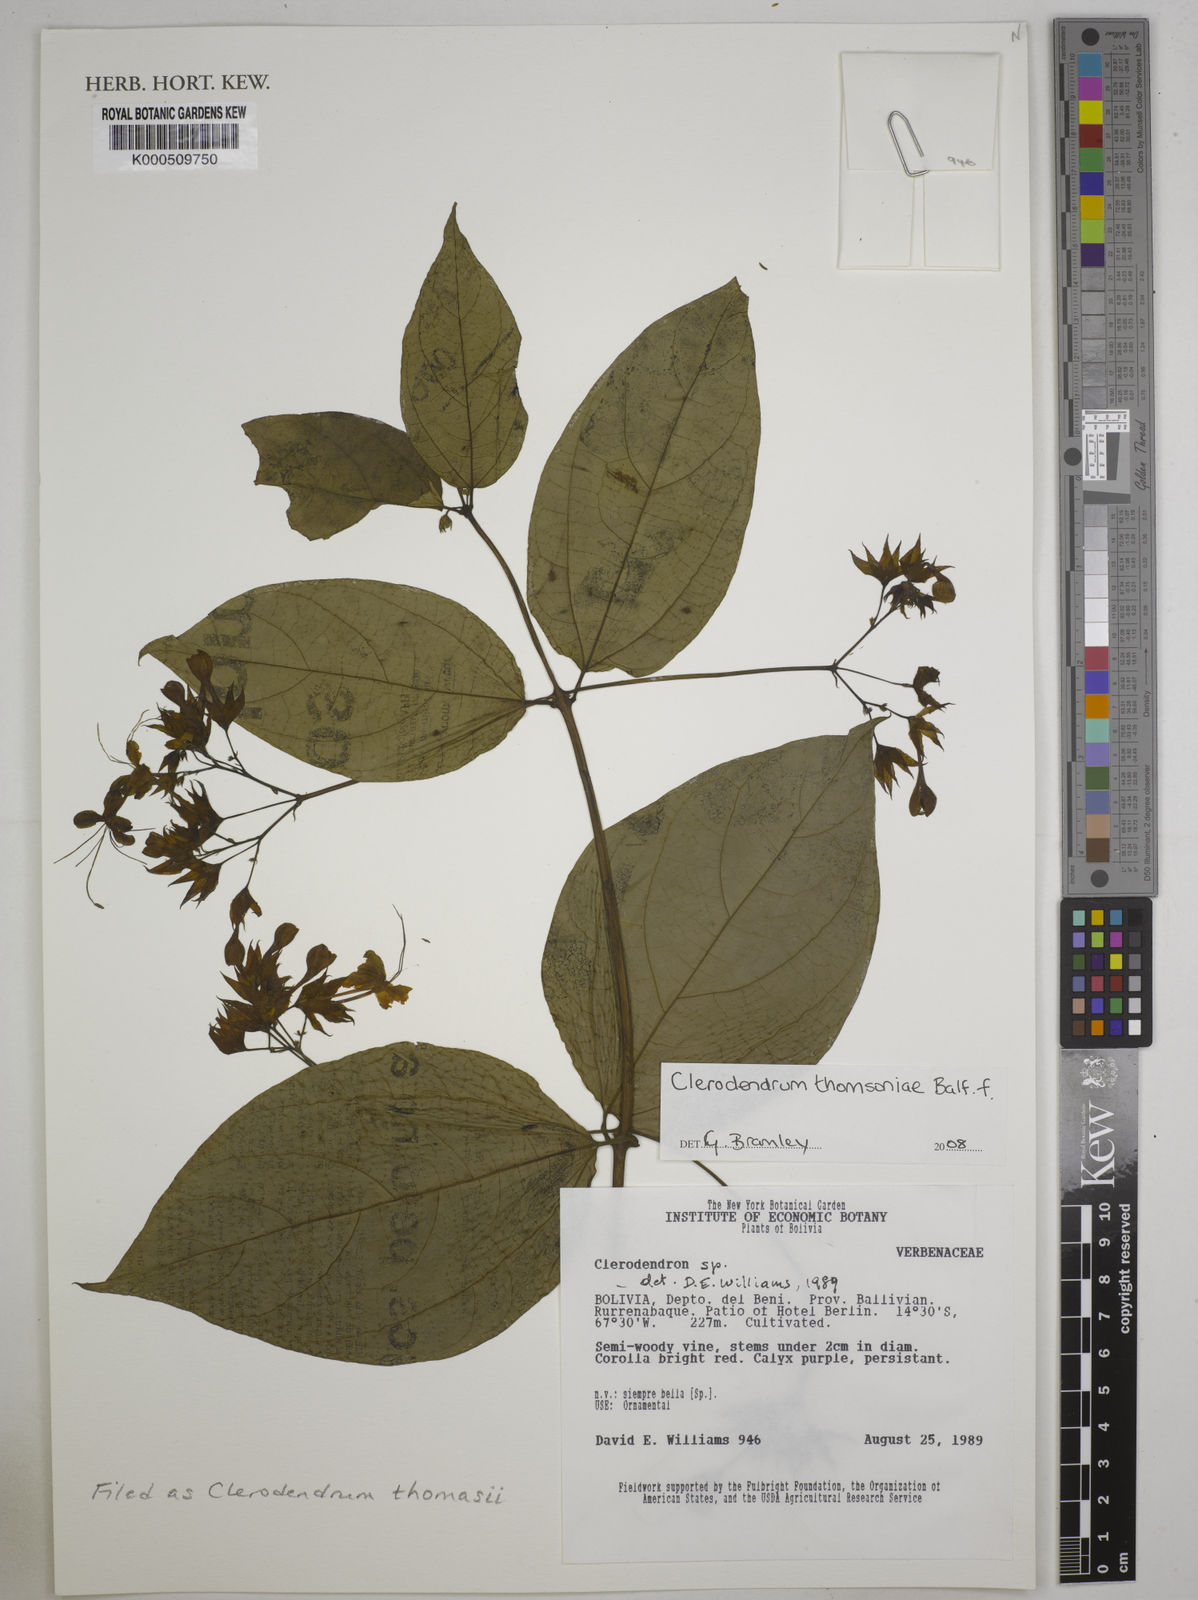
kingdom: Plantae
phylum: Tracheophyta
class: Magnoliopsida
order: Lamiales
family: Lamiaceae
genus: Clerodendrum
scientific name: Clerodendrum thomsoniae
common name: Bagflower
